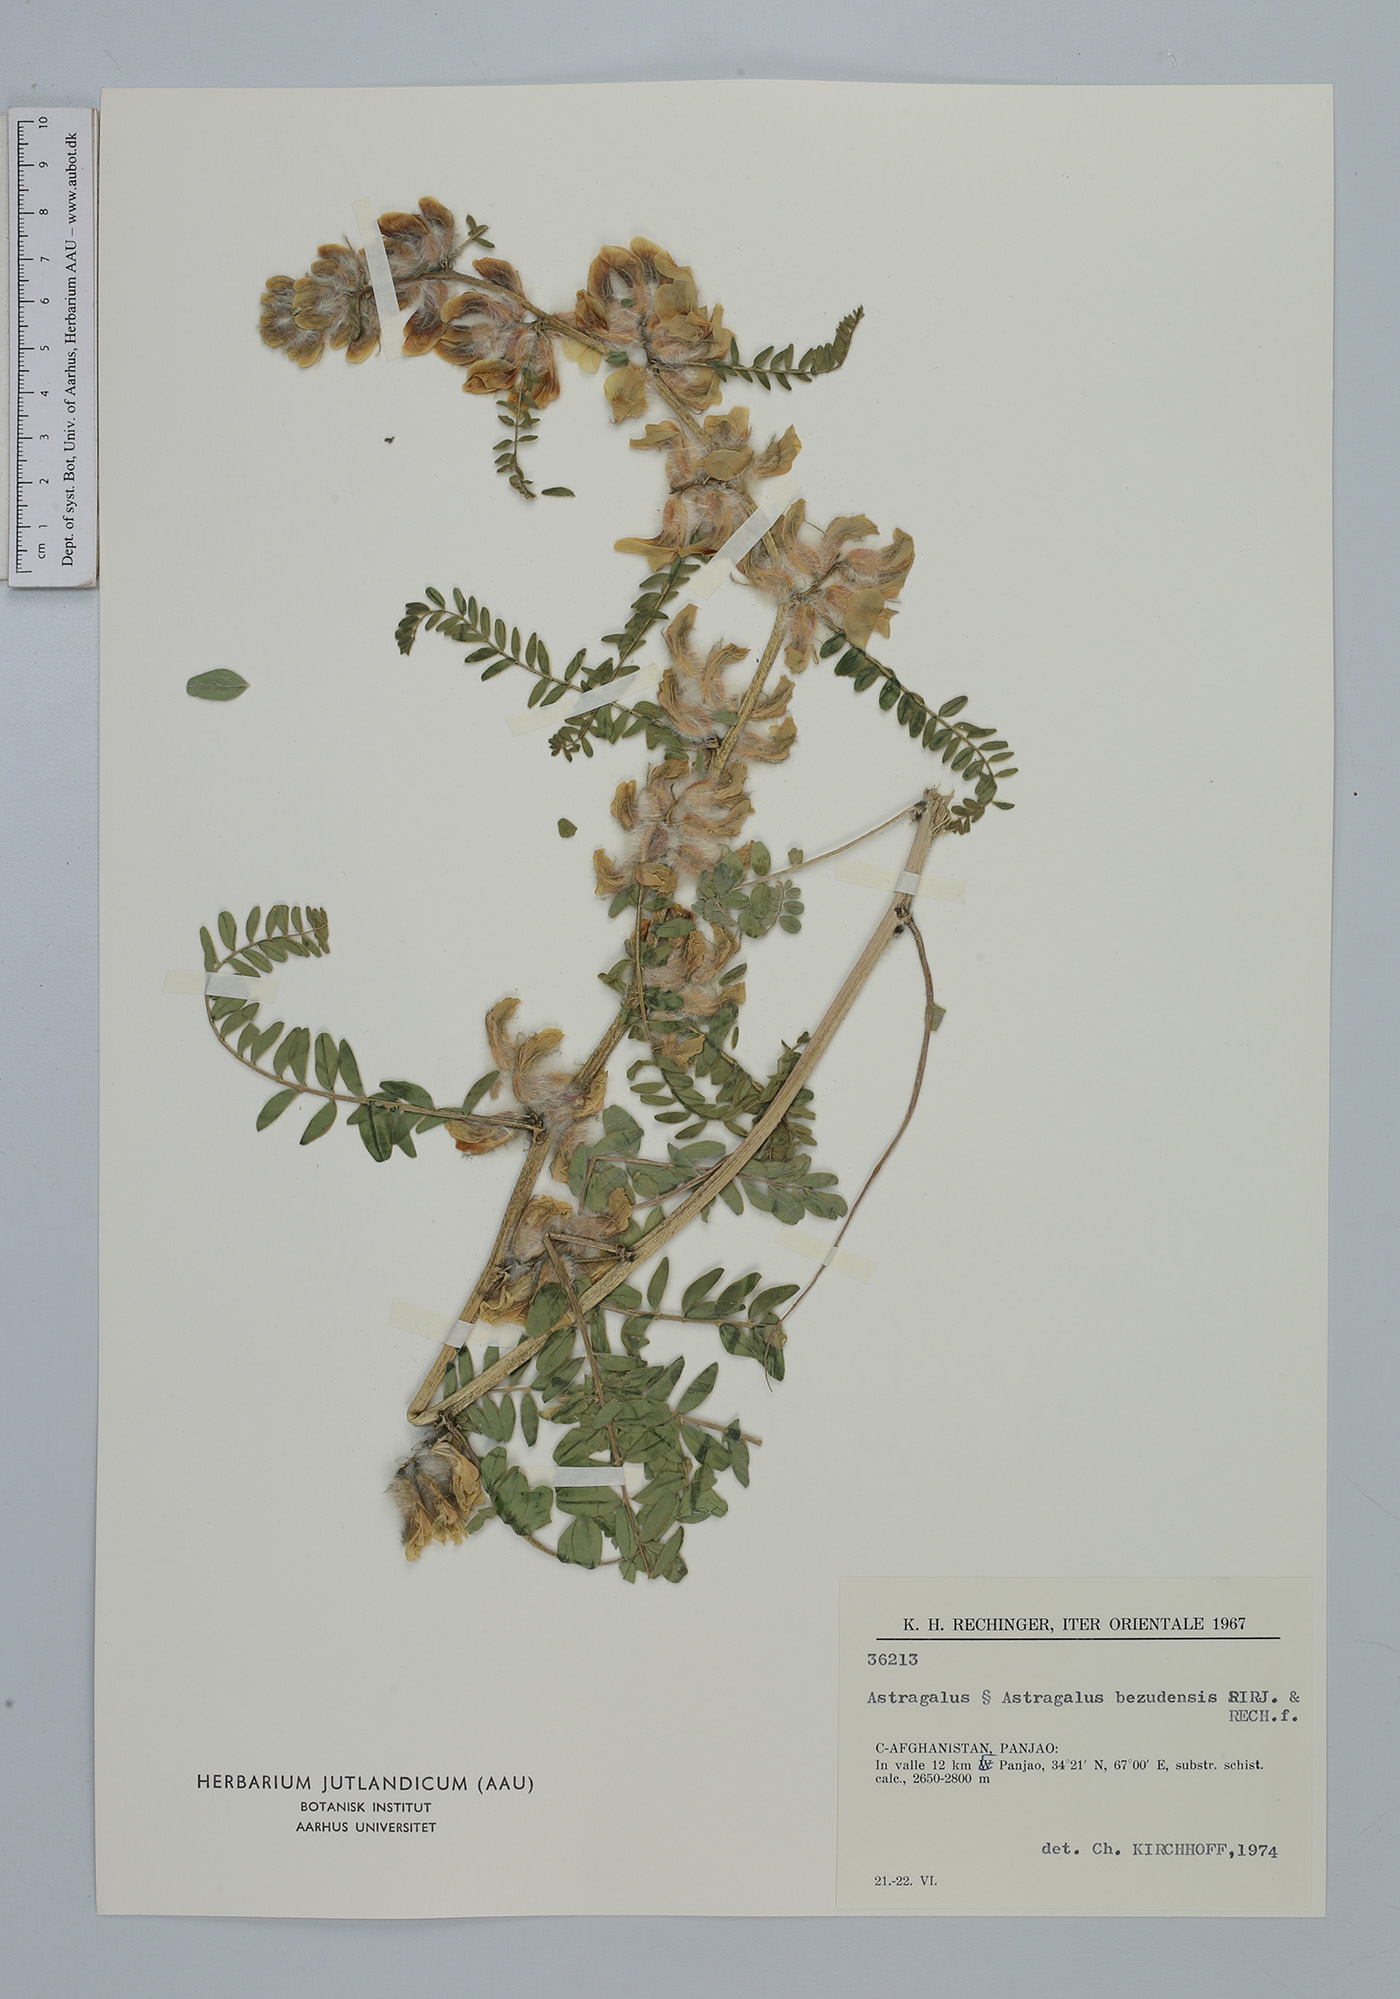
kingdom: Plantae
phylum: Tracheophyta
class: Magnoliopsida
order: Fabales
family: Fabaceae
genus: Astragalus
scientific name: Astragalus bezudensis
